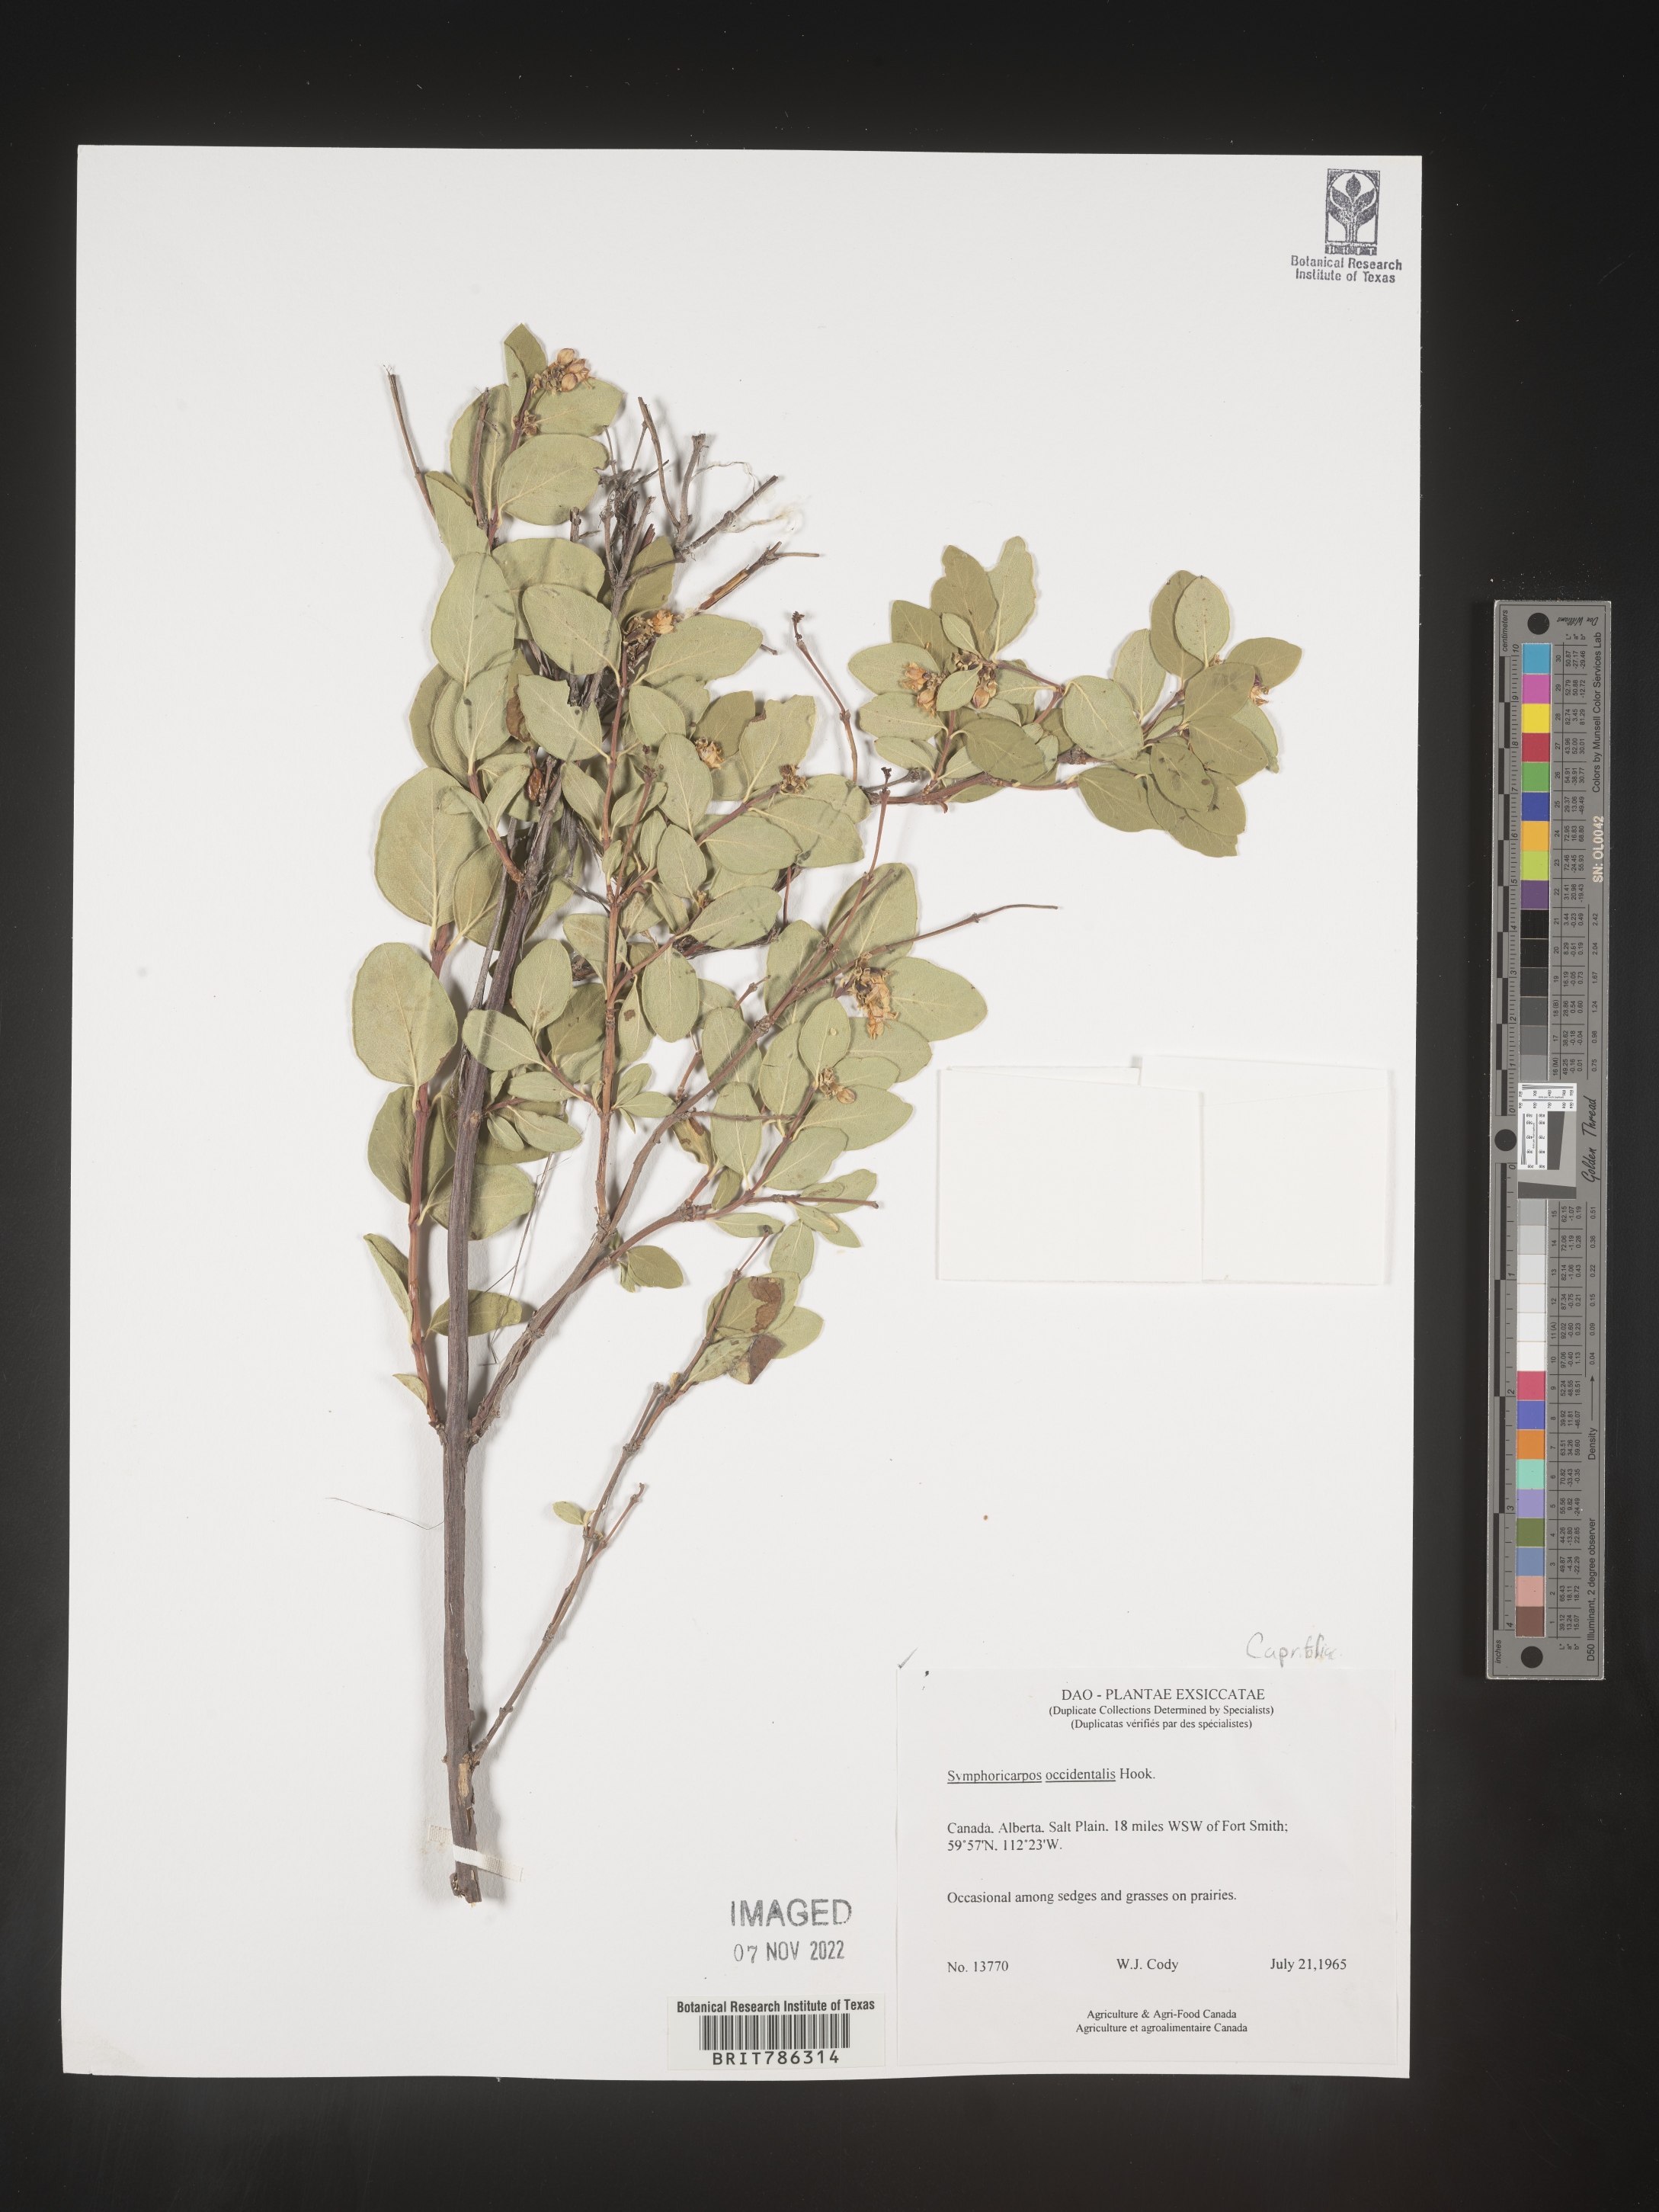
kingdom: Plantae
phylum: Tracheophyta
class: Magnoliopsida
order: Dipsacales
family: Caprifoliaceae
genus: Symphoricarpos
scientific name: Symphoricarpos occidentalis
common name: Wolfberry
